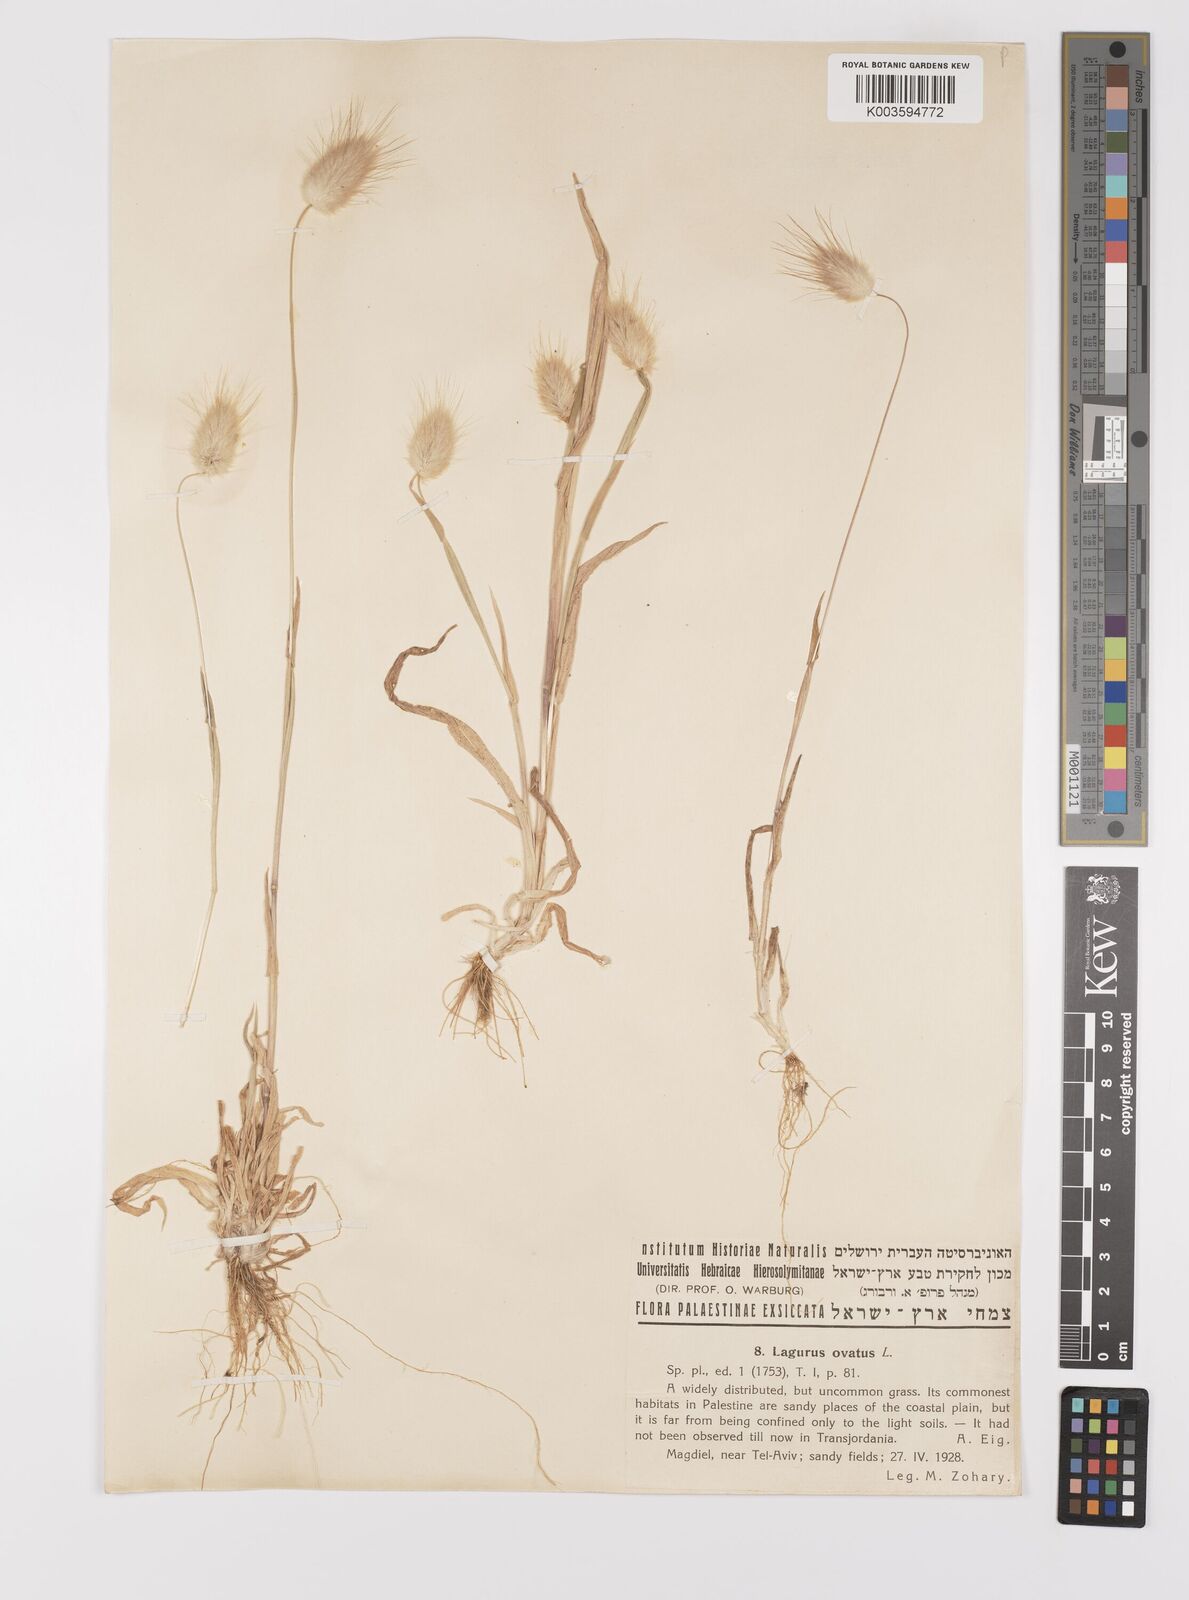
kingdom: Plantae
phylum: Tracheophyta
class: Liliopsida
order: Poales
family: Poaceae
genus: Lagurus
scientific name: Lagurus ovatus
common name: Hare's-tail
